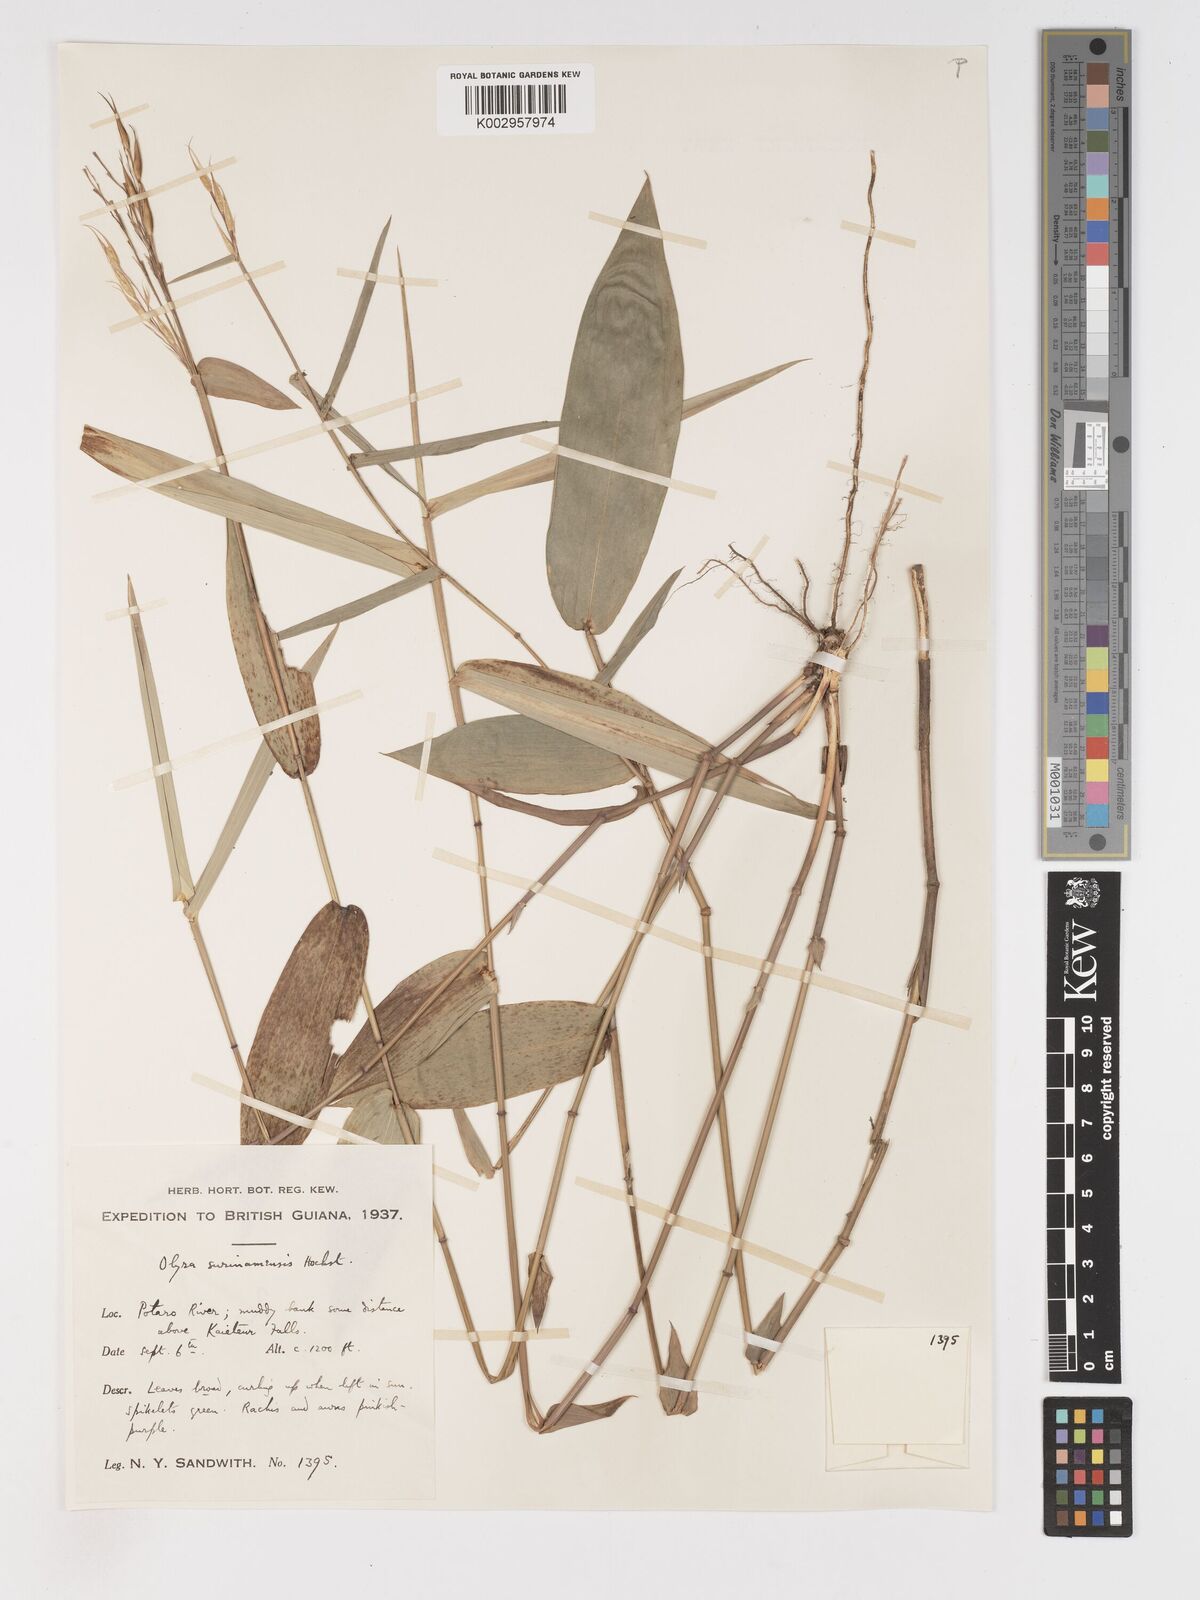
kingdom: Plantae
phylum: Tracheophyta
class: Liliopsida
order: Poales
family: Poaceae
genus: Olyra
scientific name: Olyra longifolia
